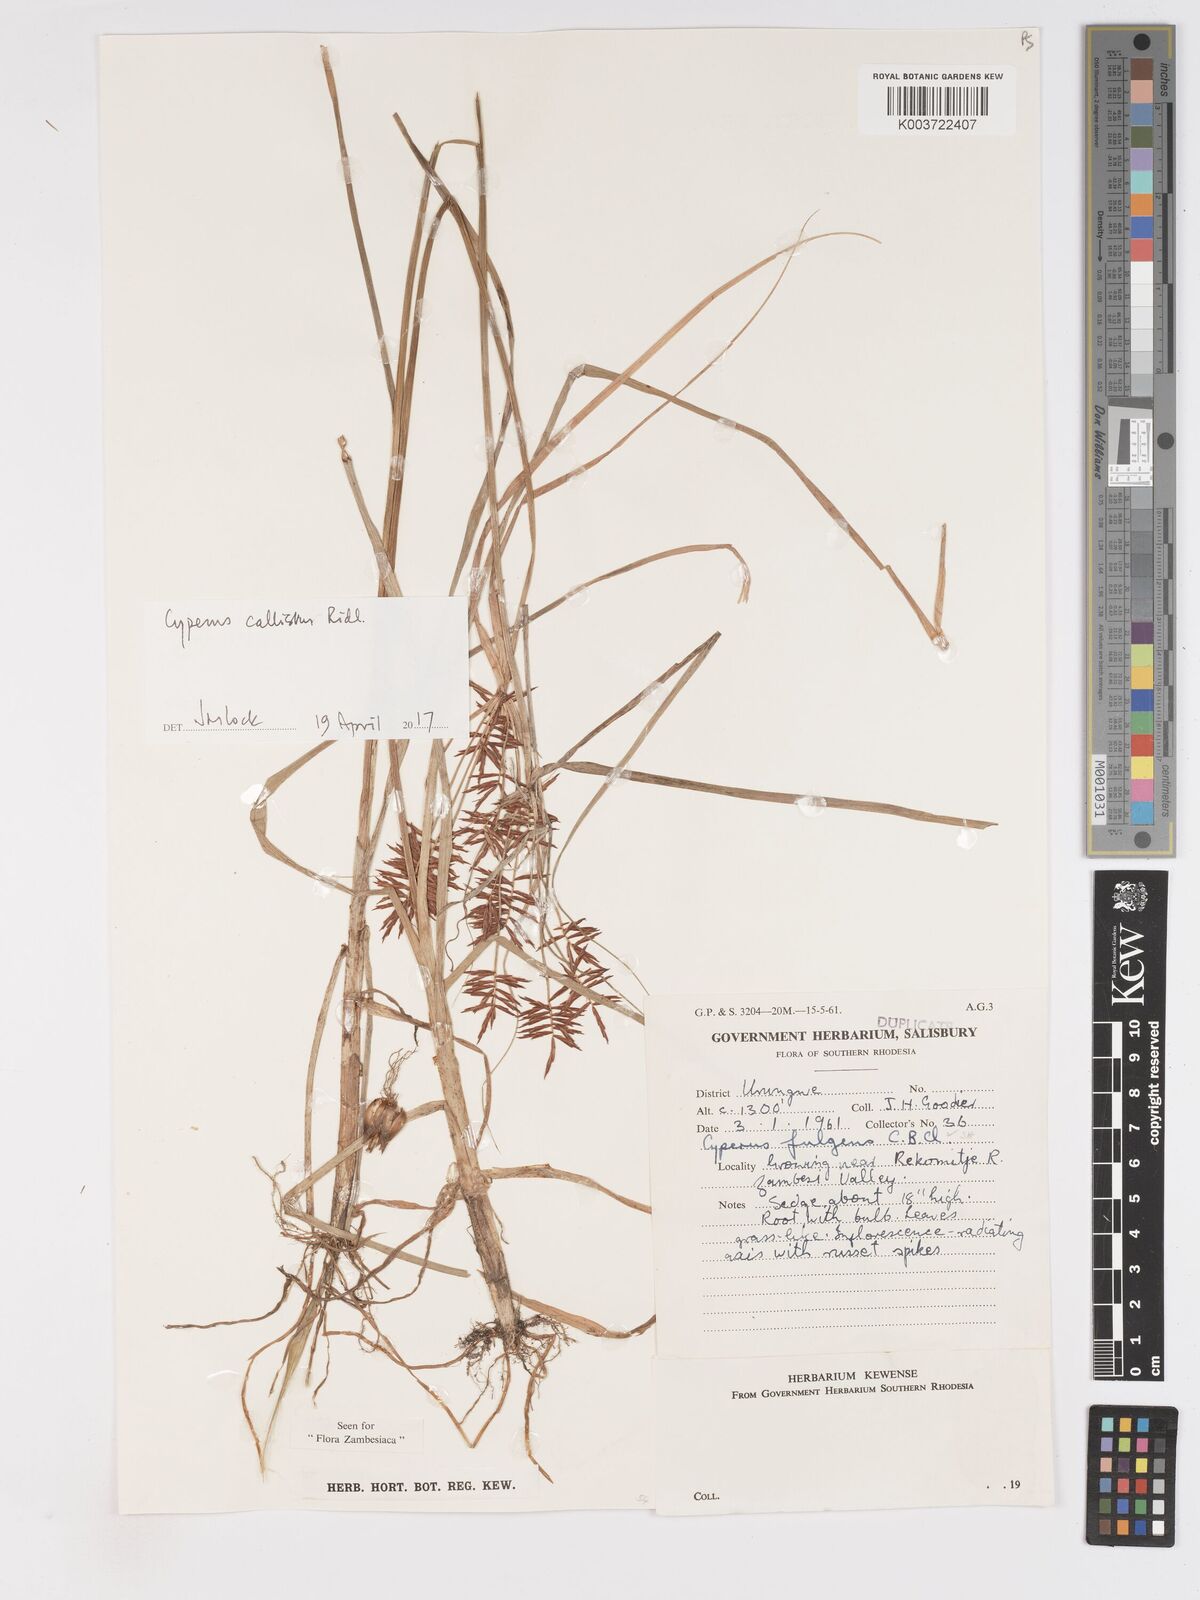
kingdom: Plantae
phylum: Tracheophyta
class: Liliopsida
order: Poales
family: Cyperaceae
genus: Cyperus
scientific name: Cyperus callistus
